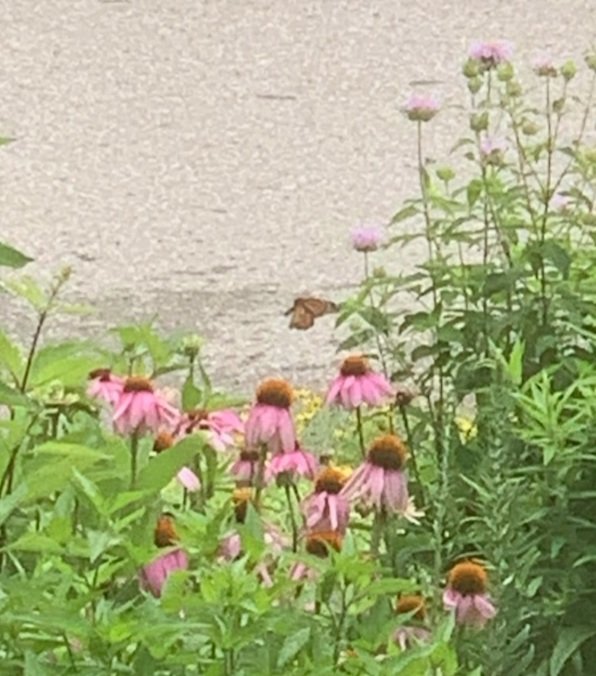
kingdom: Animalia
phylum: Arthropoda
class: Insecta
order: Lepidoptera
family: Nymphalidae
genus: Danaus
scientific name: Danaus plexippus
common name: Monarch
